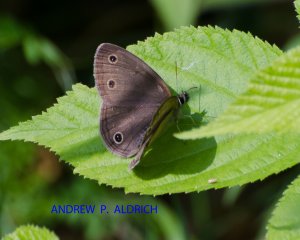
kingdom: Animalia
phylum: Arthropoda
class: Insecta
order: Lepidoptera
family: Nymphalidae
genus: Euptychia
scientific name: Euptychia cymela
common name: Little Wood Satyr
